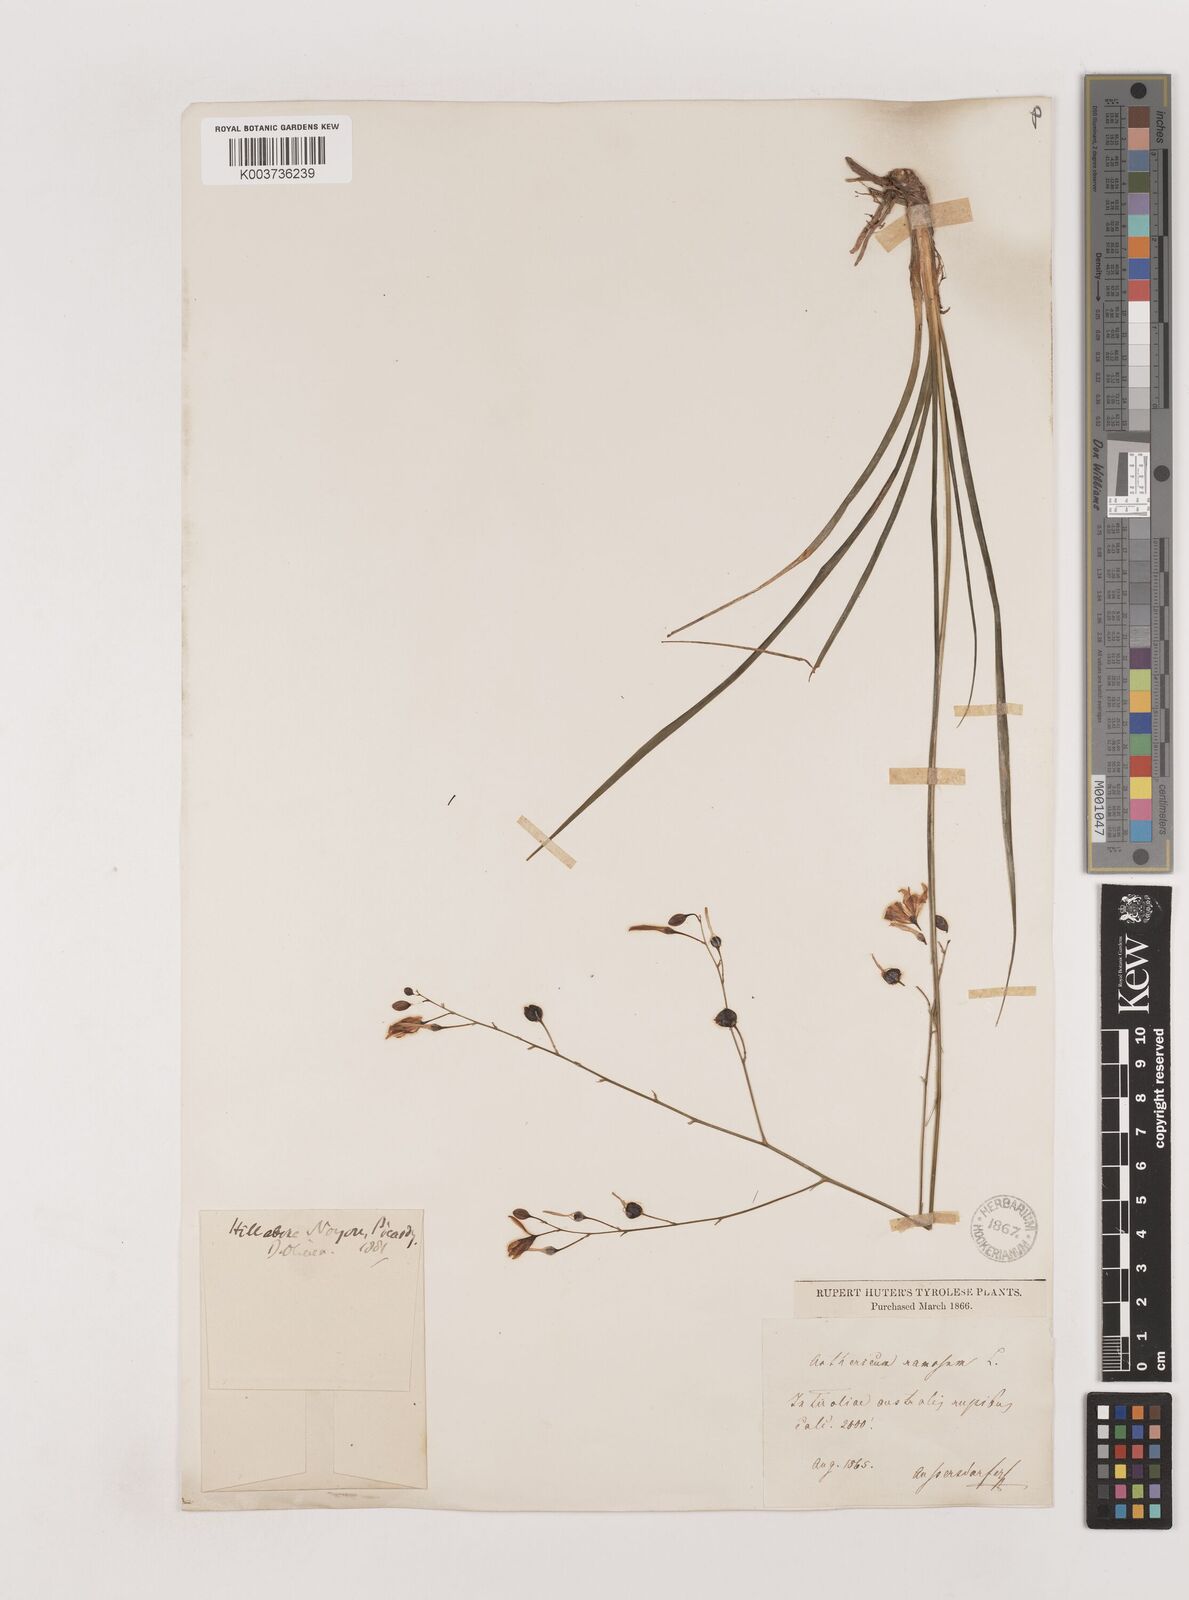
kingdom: Plantae
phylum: Tracheophyta
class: Liliopsida
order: Asparagales
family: Asparagaceae
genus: Anthericum
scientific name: Anthericum
